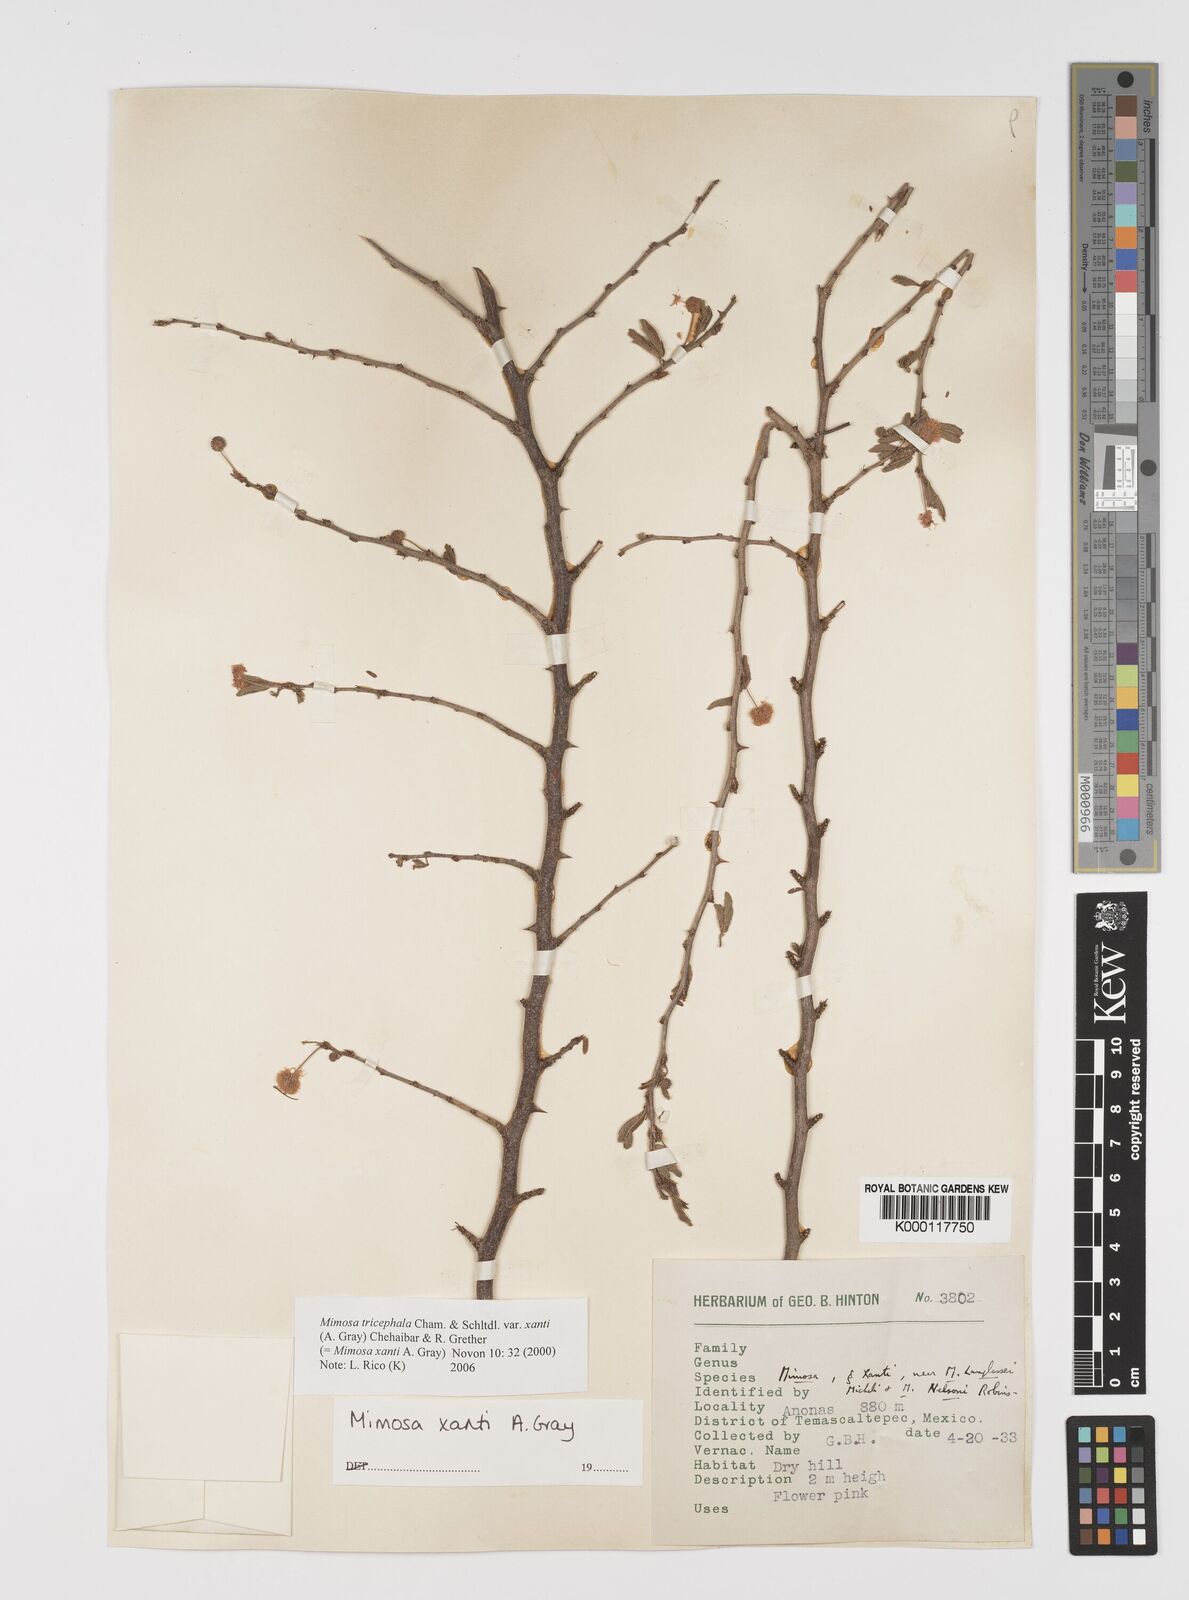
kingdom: Plantae
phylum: Tracheophyta
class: Magnoliopsida
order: Fabales
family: Fabaceae
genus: Mimosa
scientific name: Mimosa tricephala
